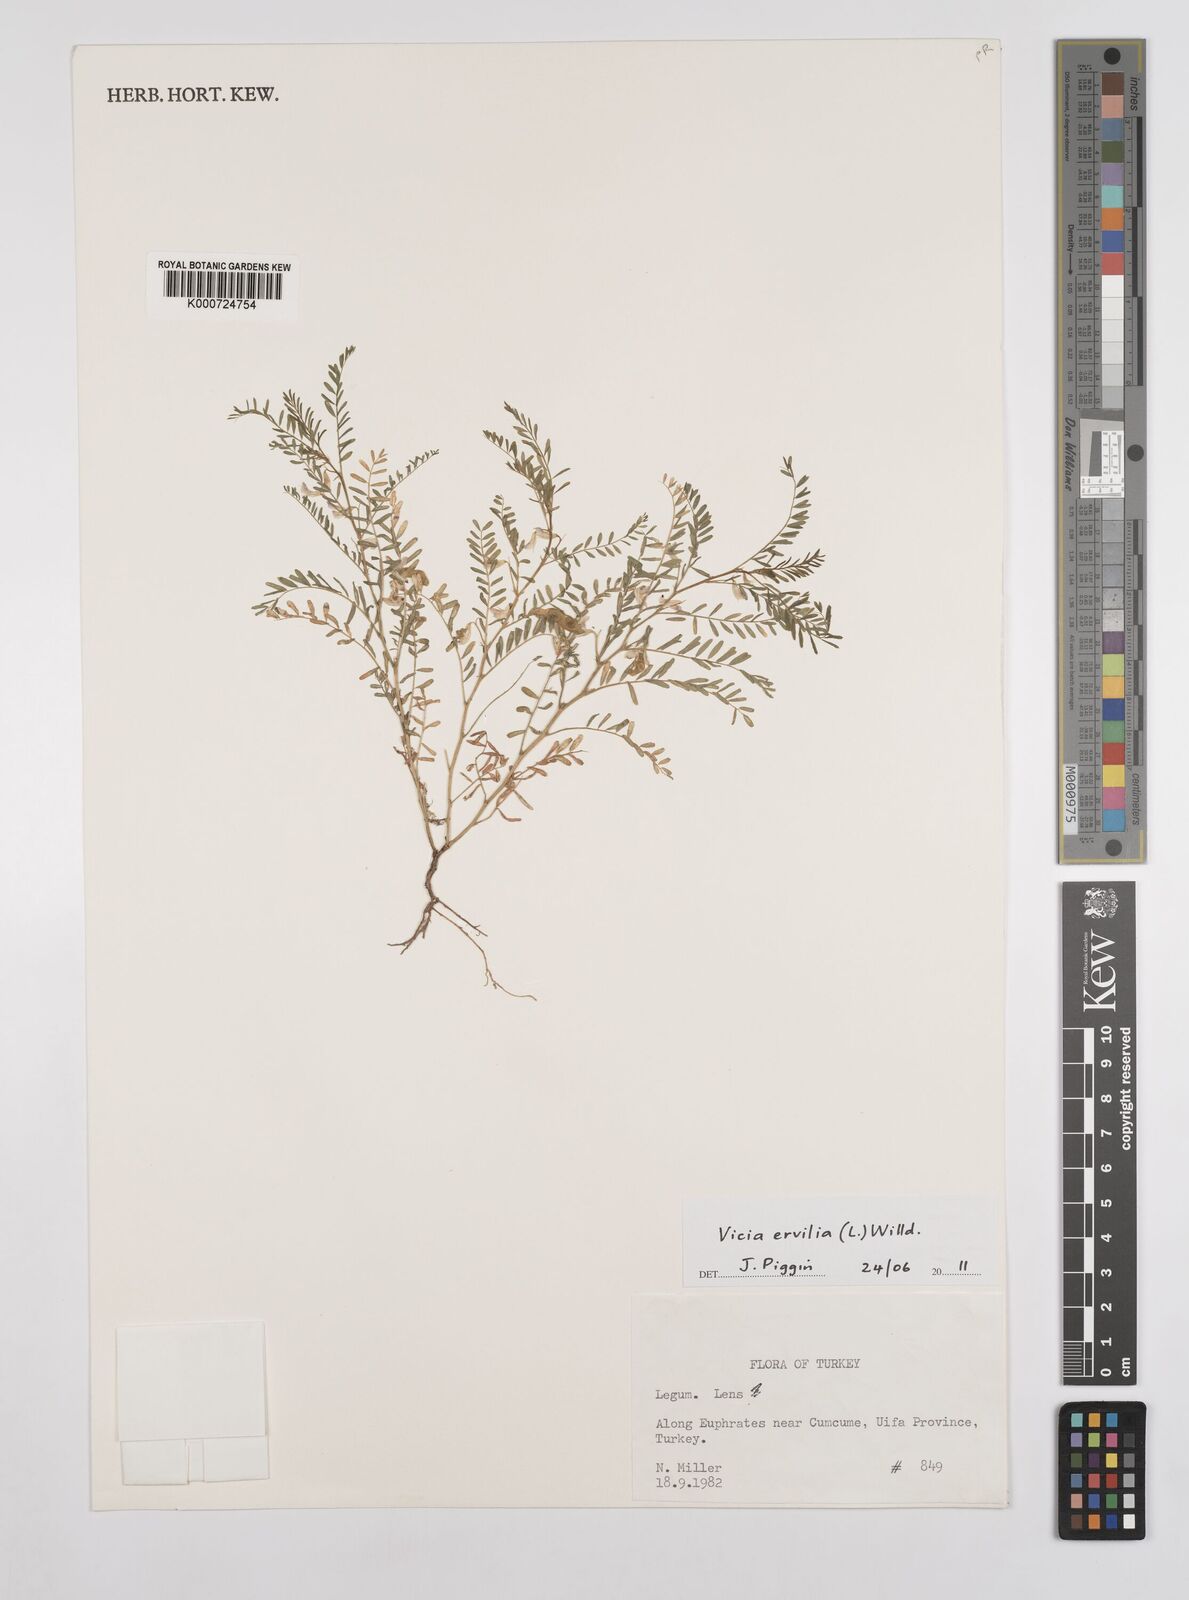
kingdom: Plantae
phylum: Tracheophyta
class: Magnoliopsida
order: Fabales
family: Fabaceae
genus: Vicia
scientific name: Vicia ervilia
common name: Bitter vetch
